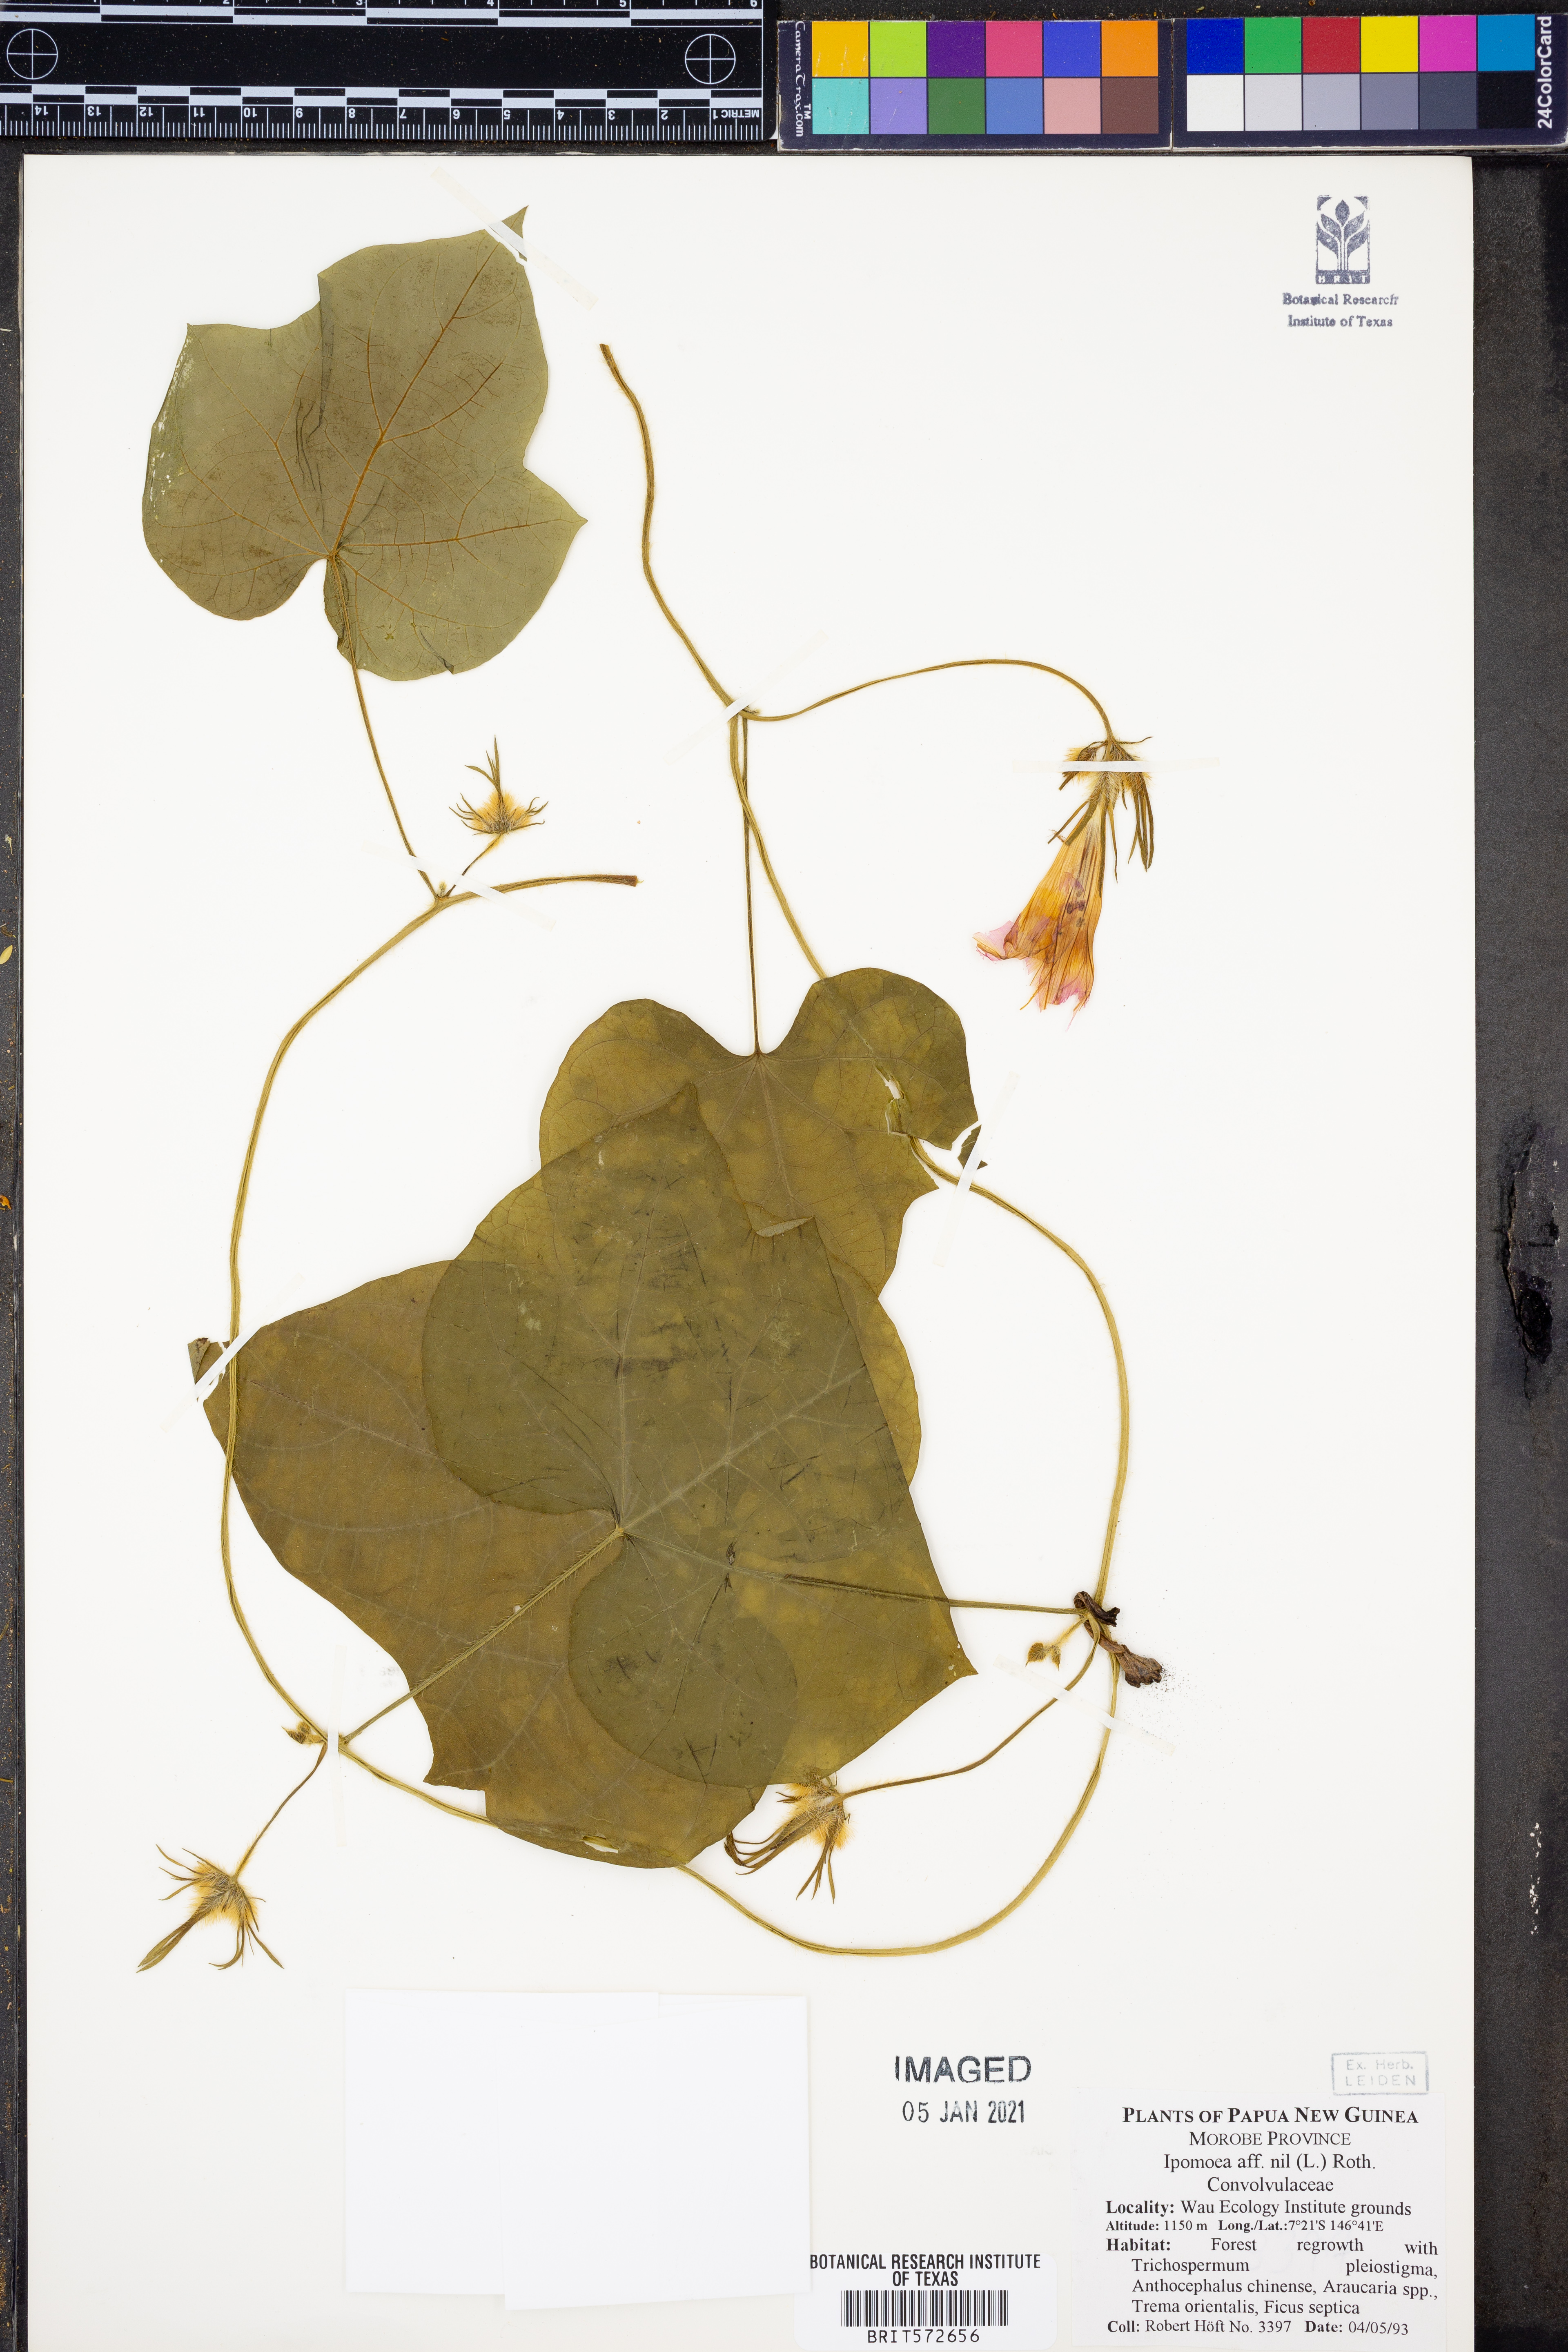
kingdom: Plantae
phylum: Tracheophyta
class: Magnoliopsida
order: Solanales
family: Convolvulaceae
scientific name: Convolvulaceae
